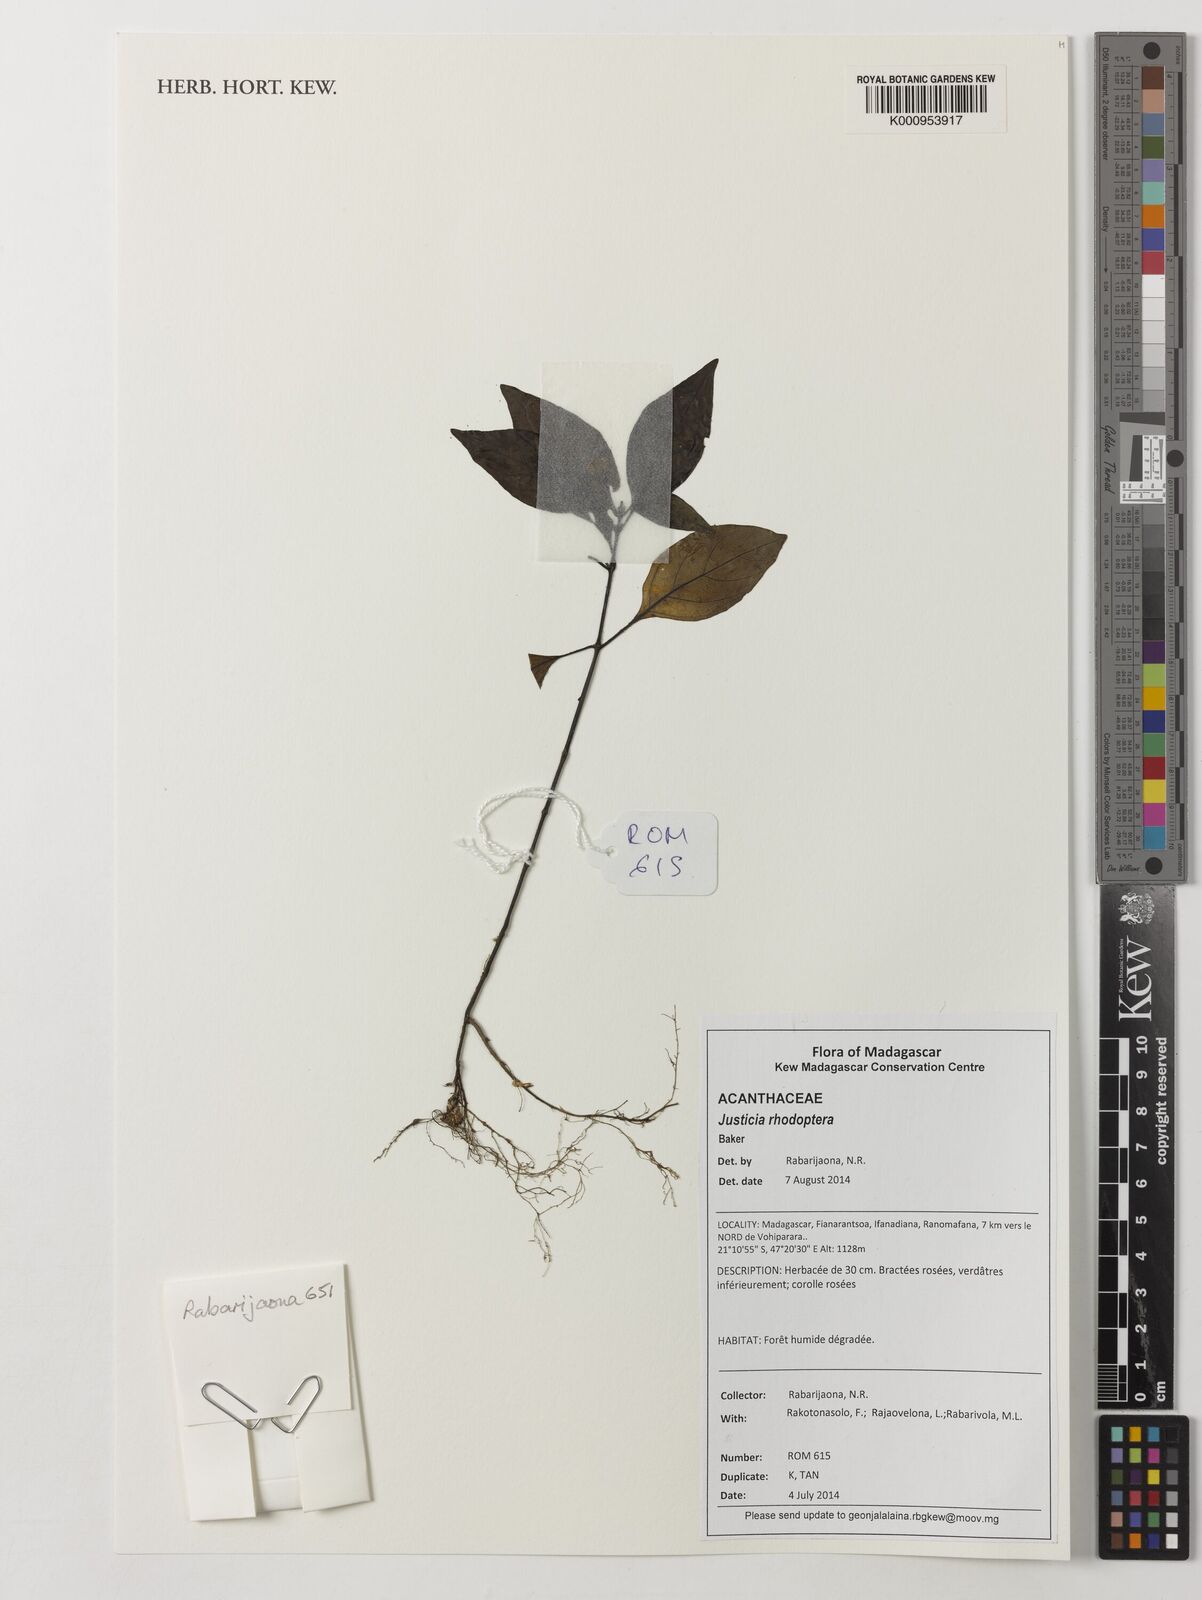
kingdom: Plantae
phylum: Tracheophyta
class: Magnoliopsida
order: Lamiales
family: Acanthaceae
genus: Justicia
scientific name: Justicia rhodoptera
